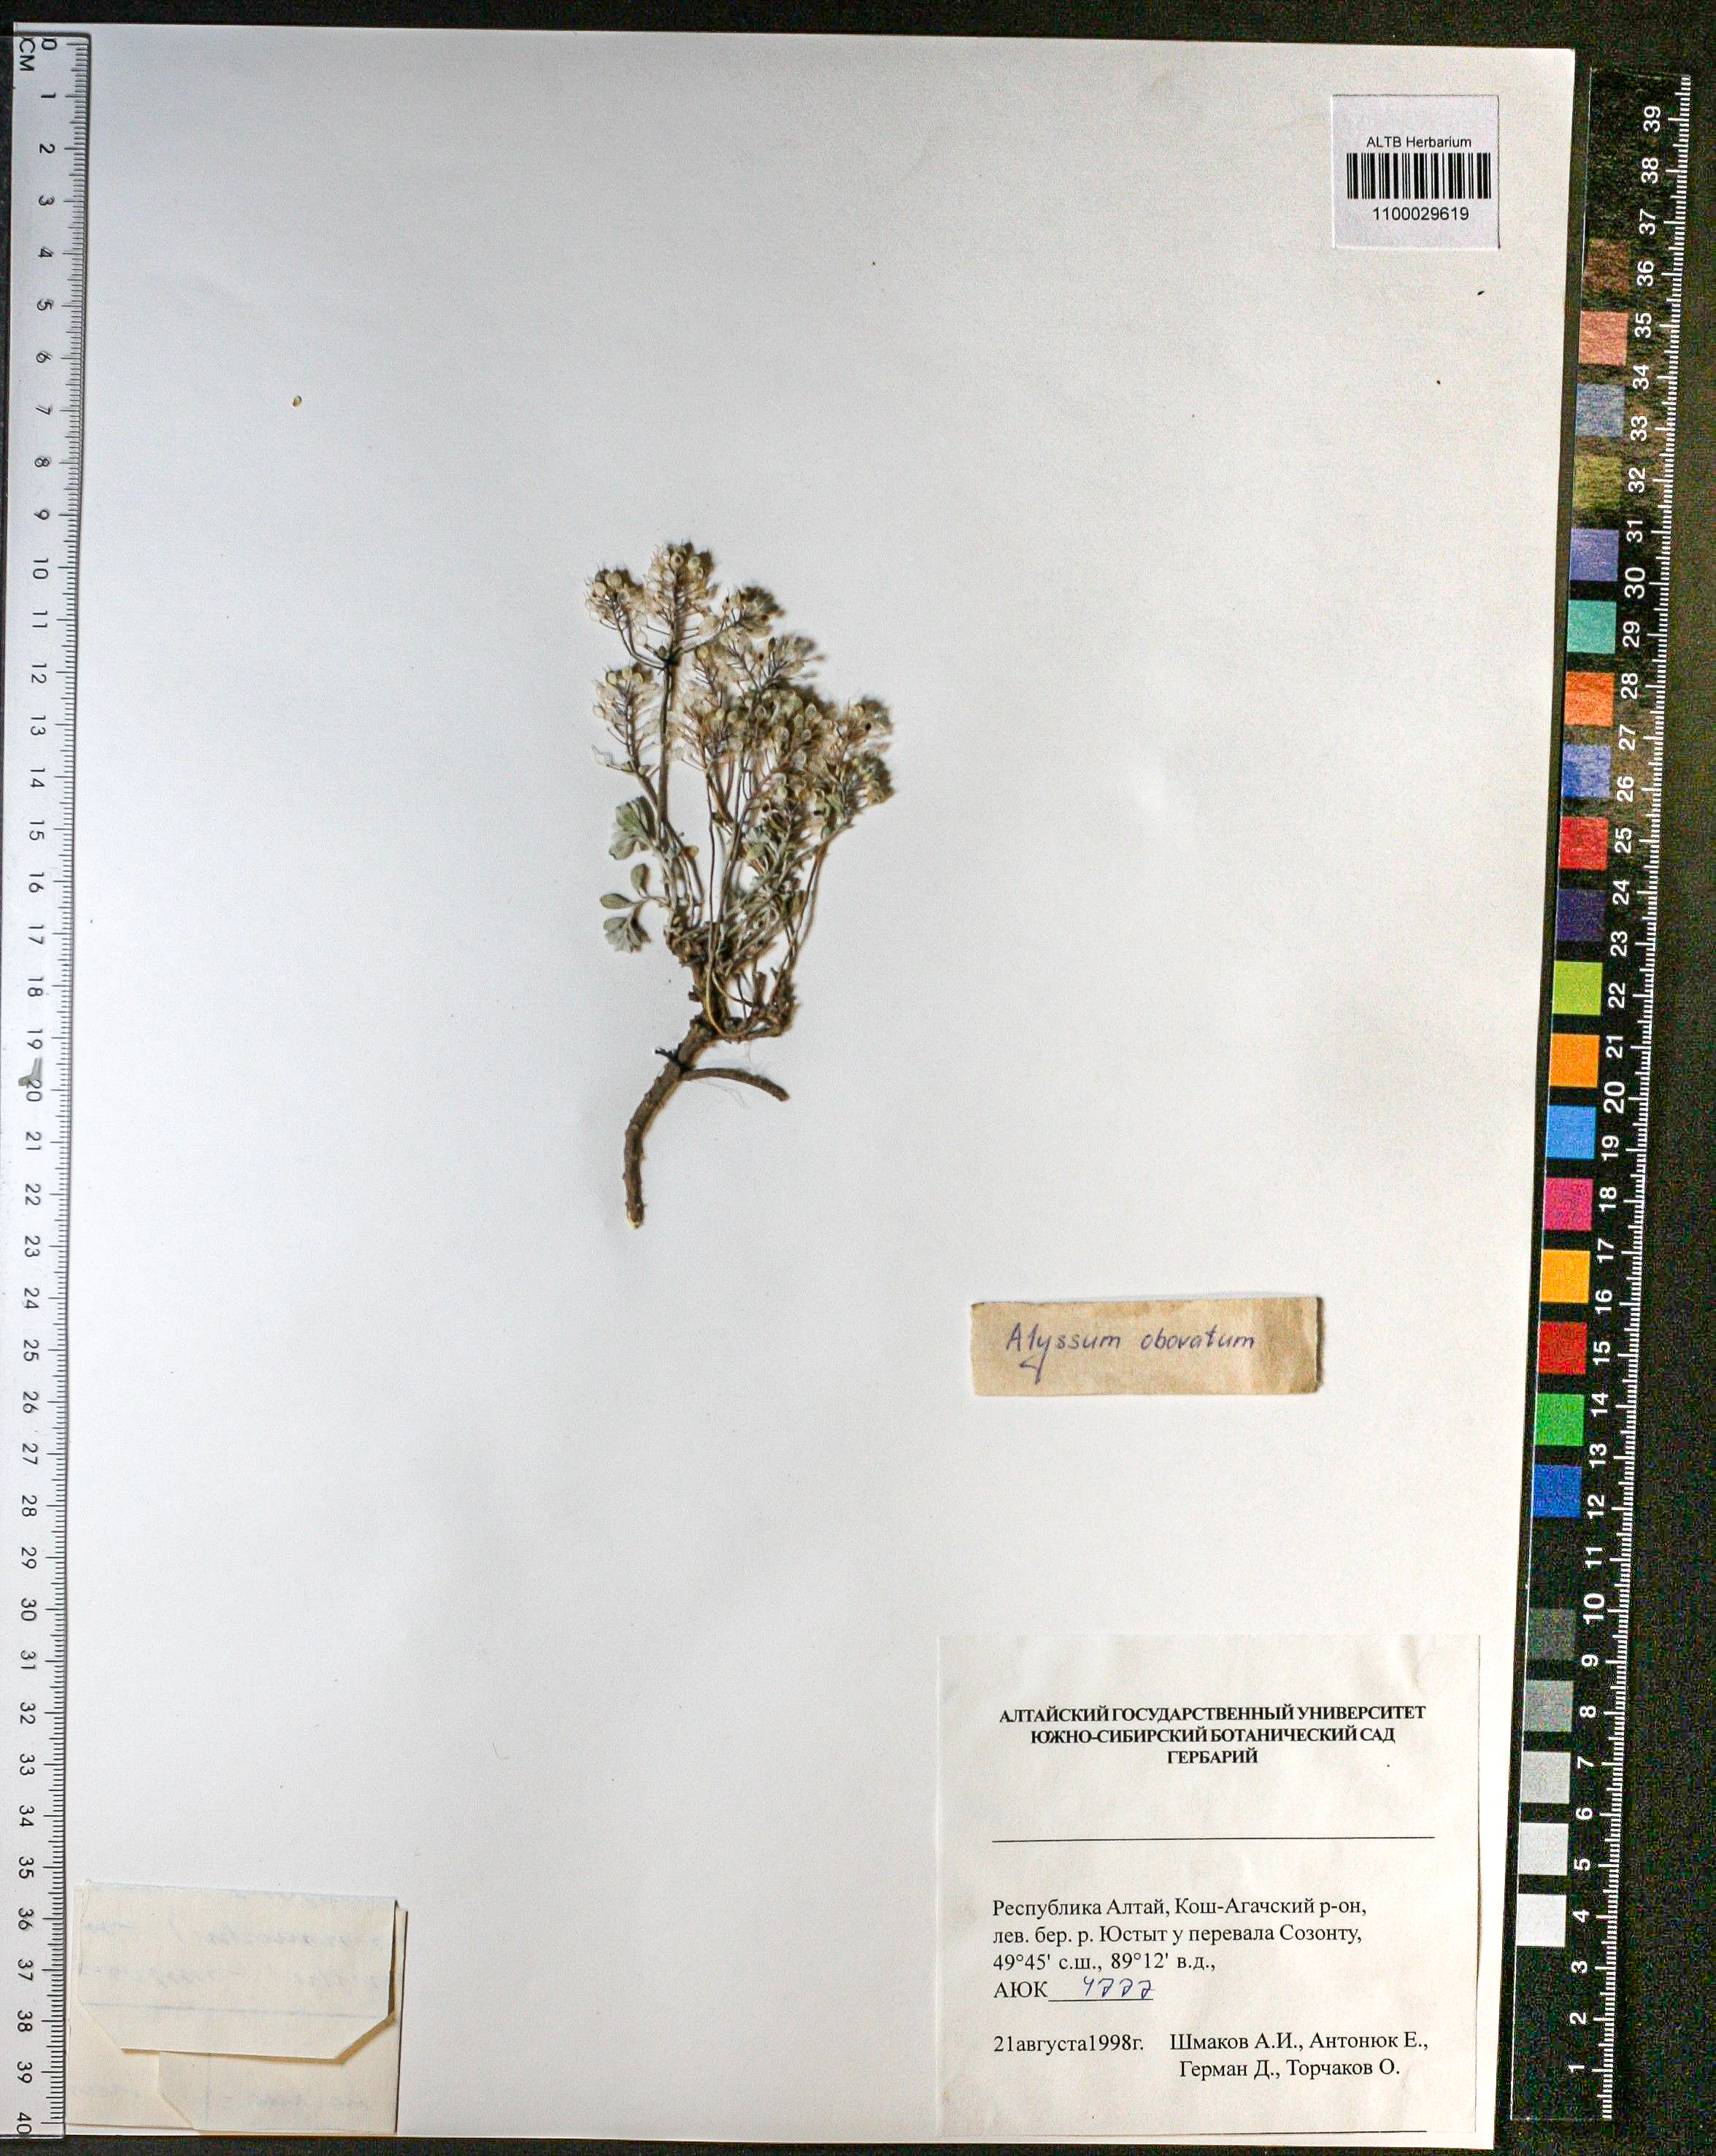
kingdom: Plantae
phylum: Tracheophyta
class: Magnoliopsida
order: Brassicales
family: Brassicaceae
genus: Odontarrhena
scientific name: Odontarrhena obovata
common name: American alyssum
